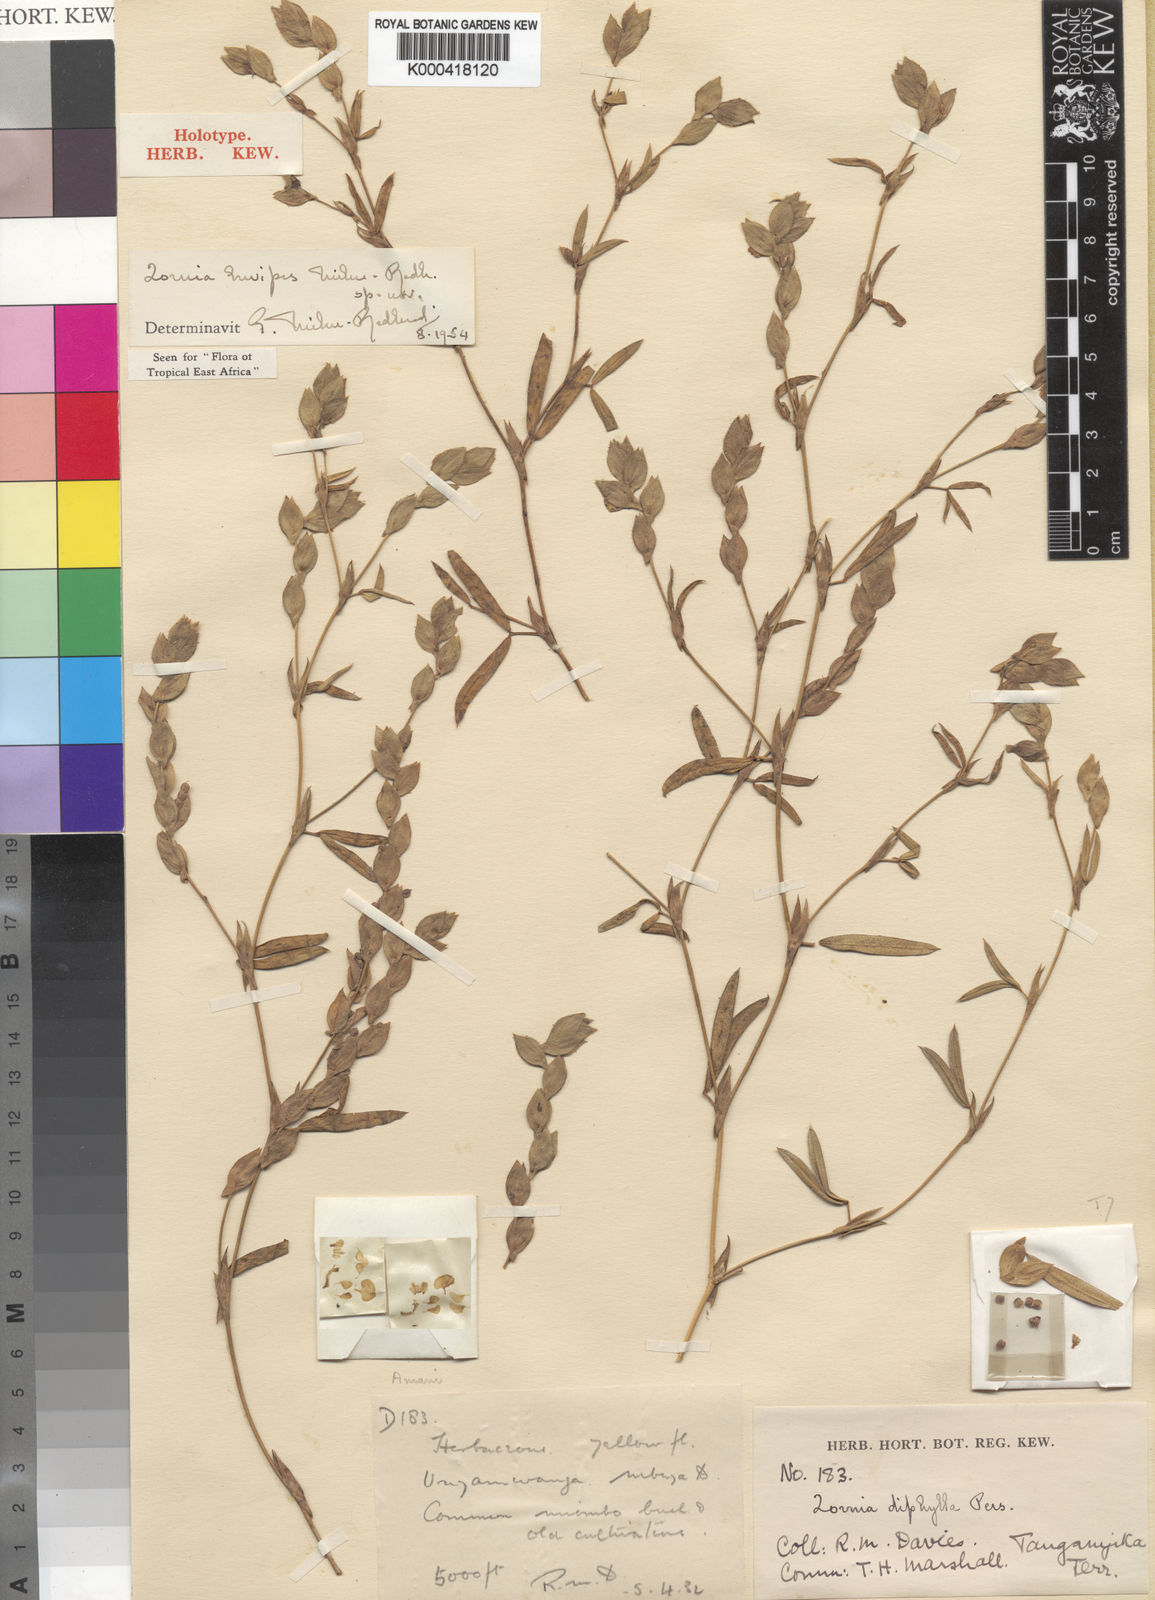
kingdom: Plantae
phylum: Tracheophyta
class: Magnoliopsida
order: Fabales
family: Fabaceae
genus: Zornia
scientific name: Zornia brevipes
